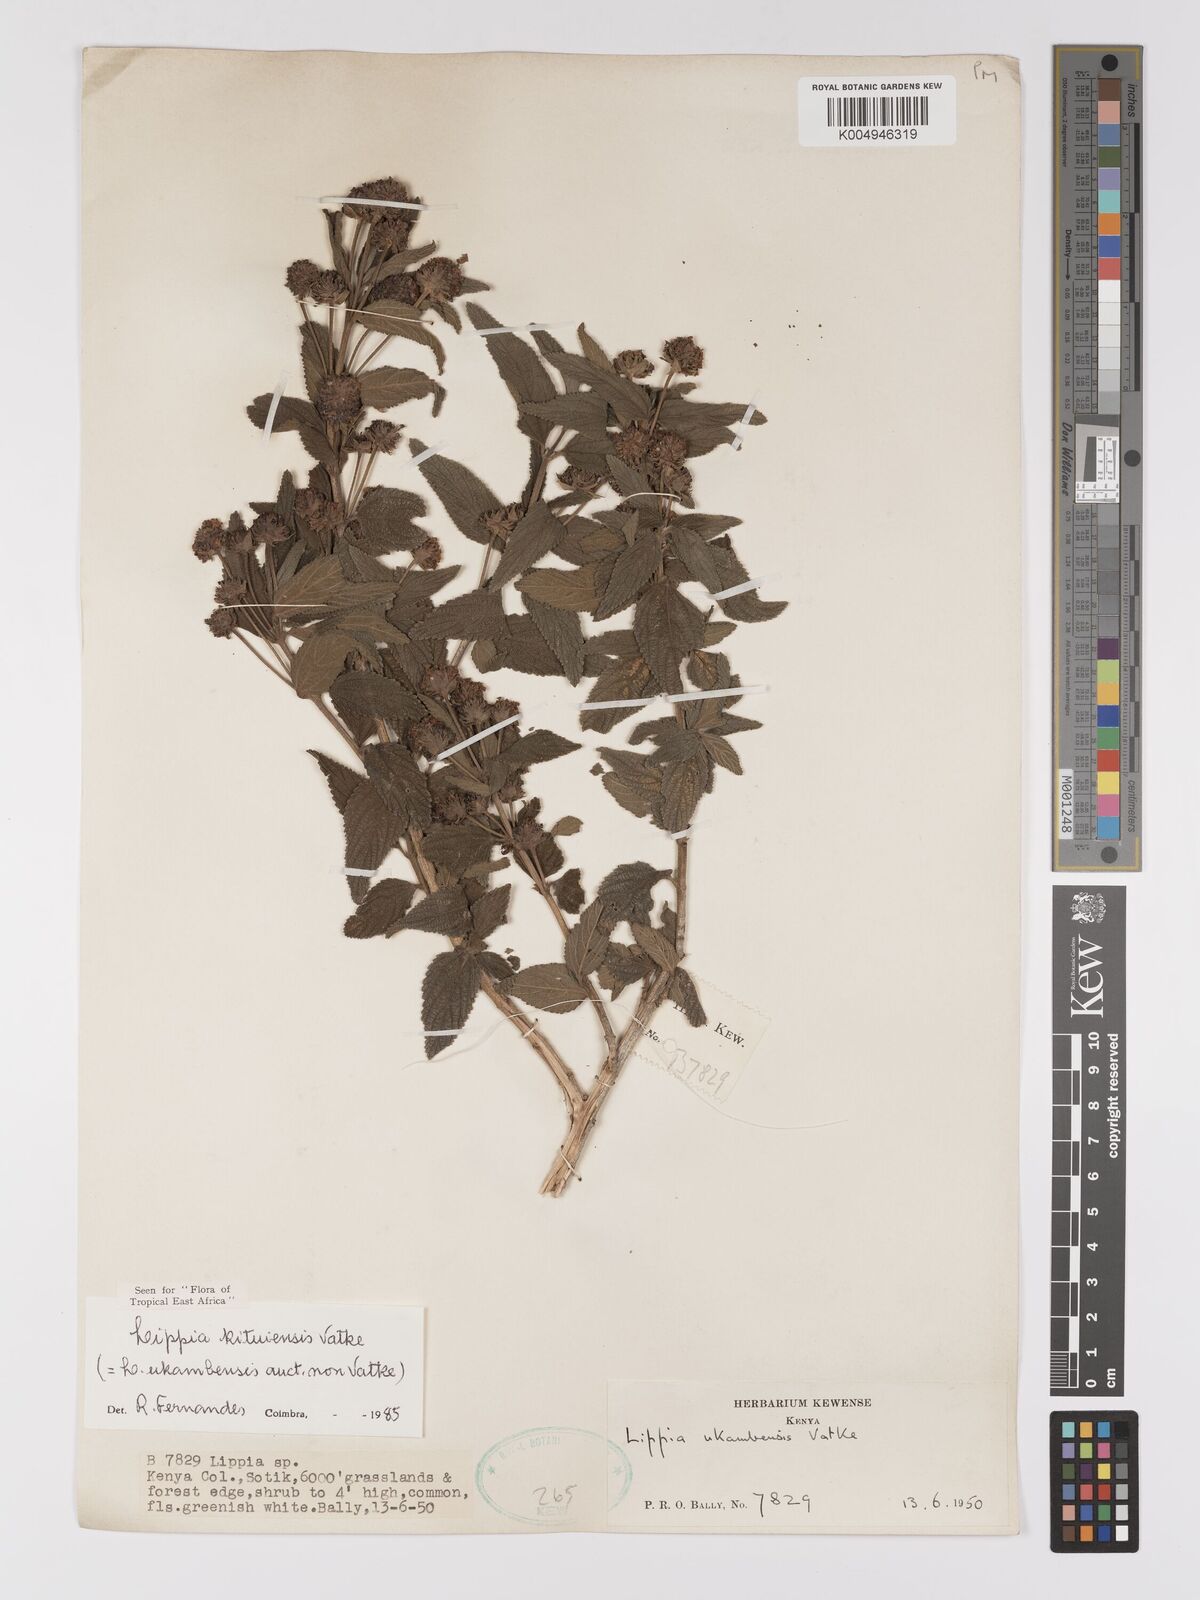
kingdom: Plantae
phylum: Tracheophyta
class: Magnoliopsida
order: Lamiales
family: Verbenaceae
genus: Lantana
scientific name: Lantana ukambensis
